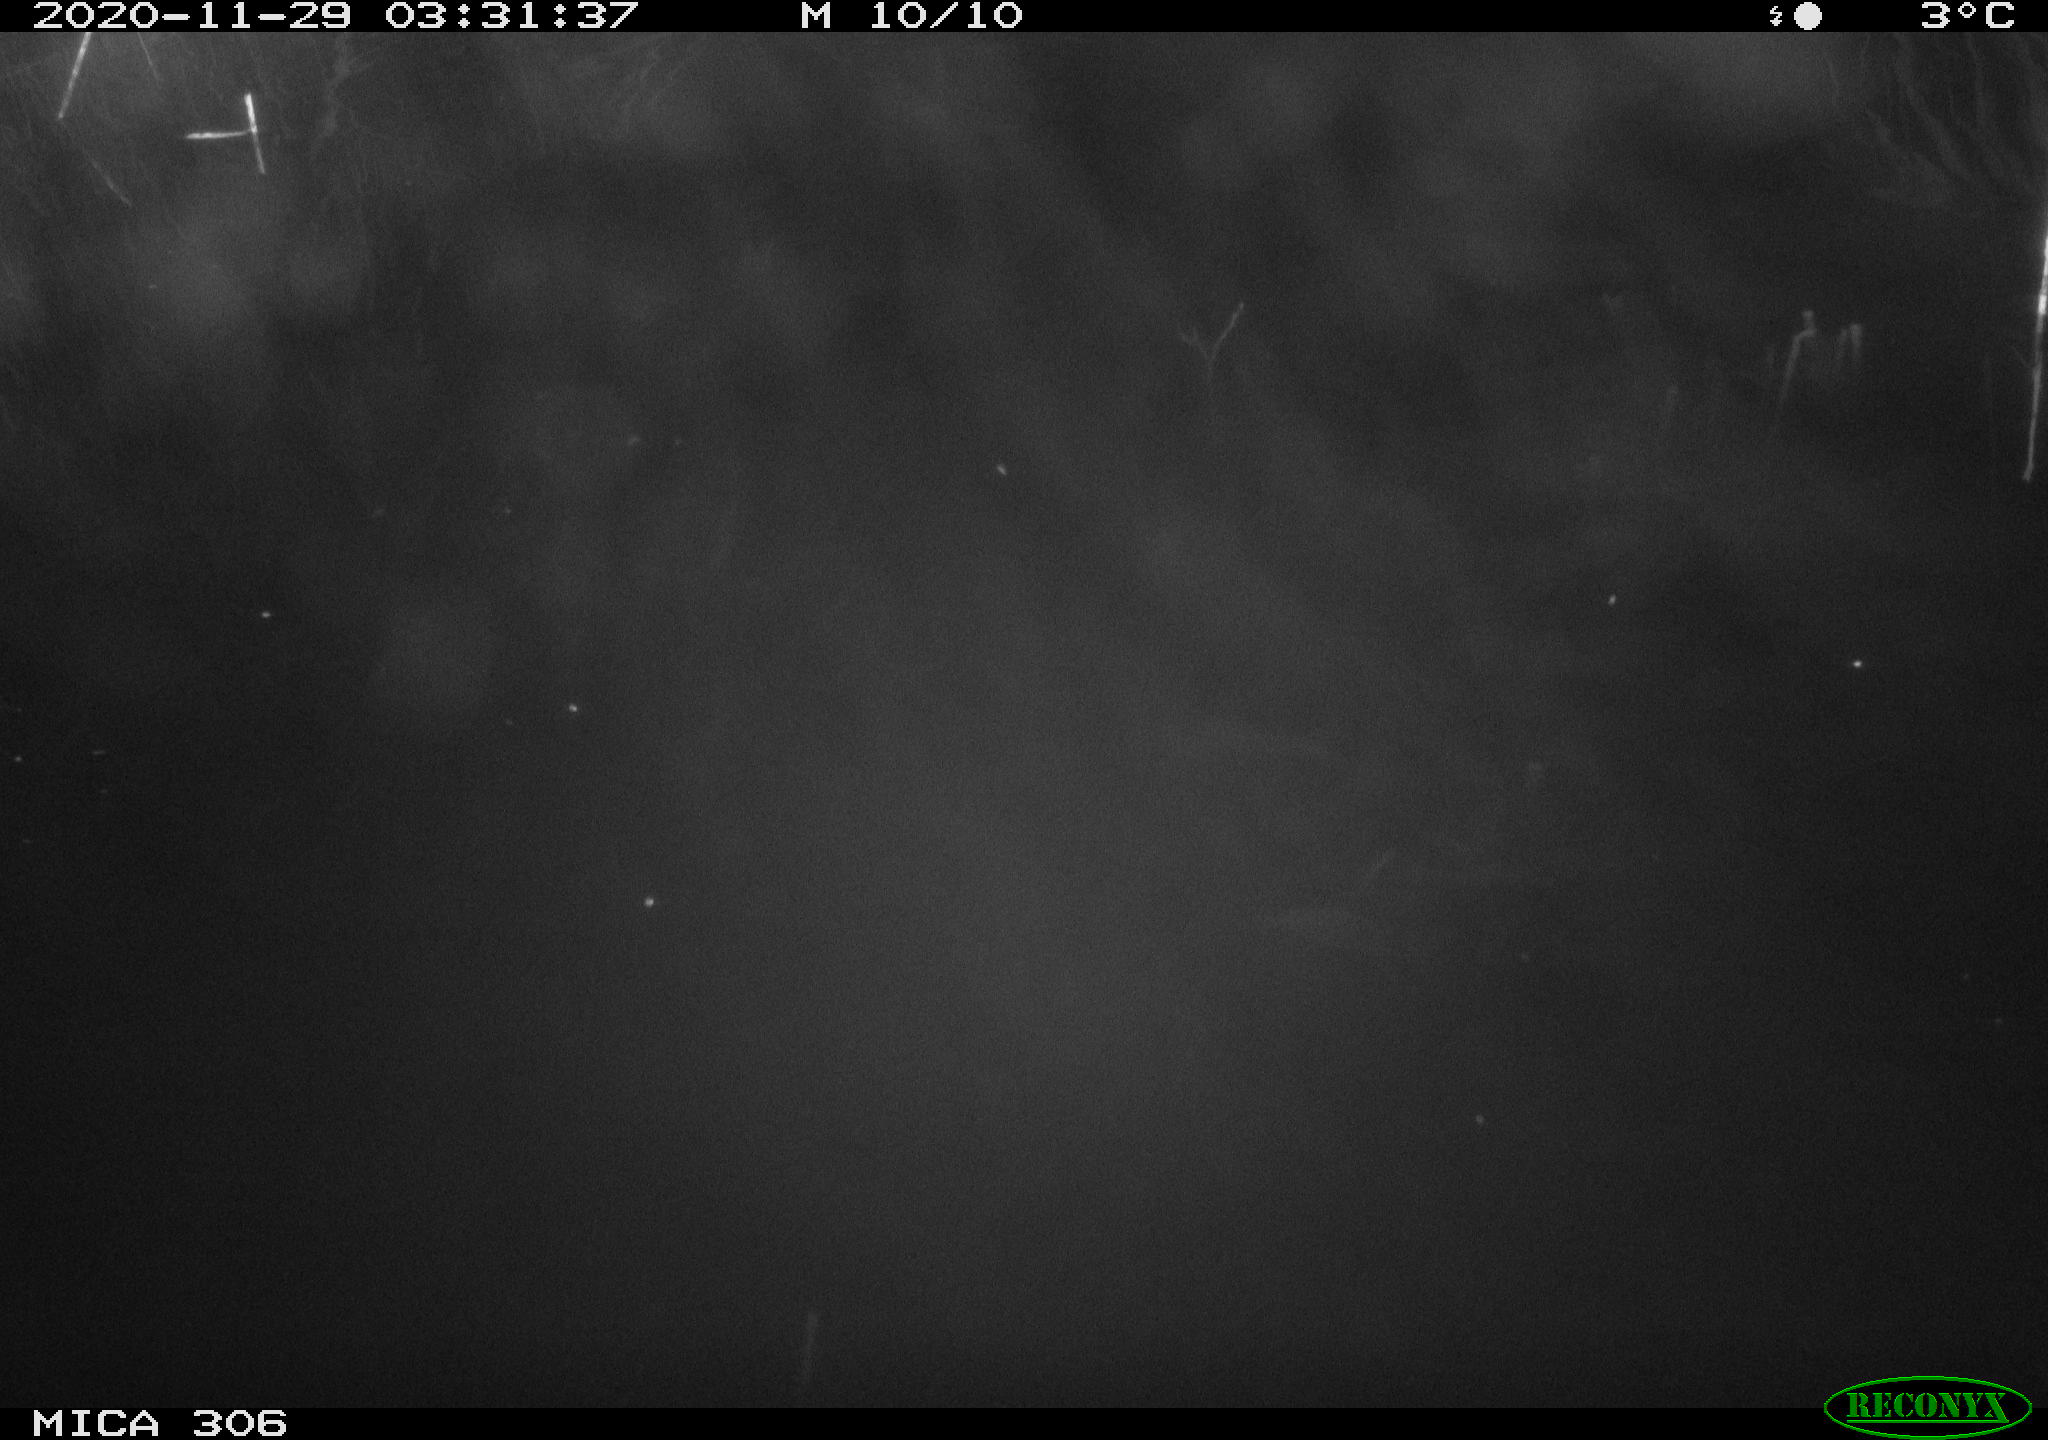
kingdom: Animalia
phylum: Chordata
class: Mammalia
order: Rodentia
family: Muridae
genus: Rattus
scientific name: Rattus norvegicus
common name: Brown rat
